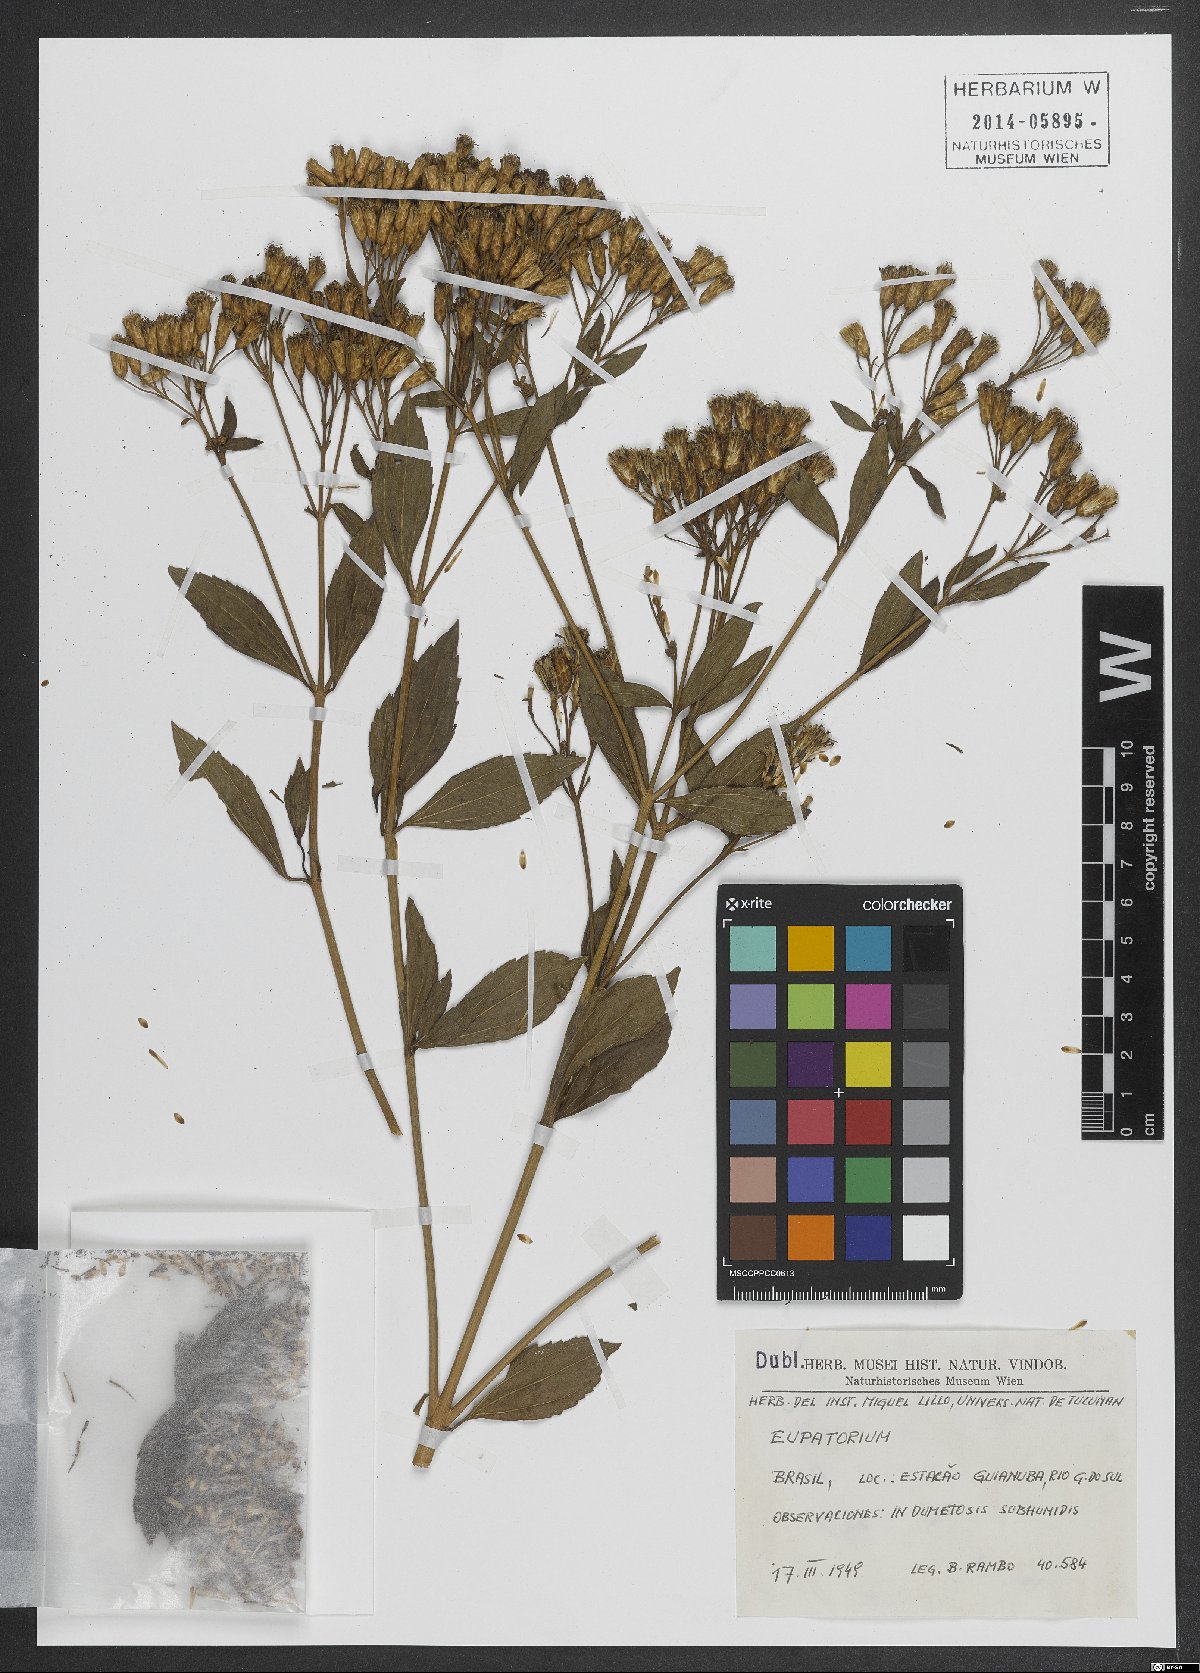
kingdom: Plantae
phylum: Tracheophyta
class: Magnoliopsida
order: Asterales
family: Asteraceae
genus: Eupatorium
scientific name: Eupatorium
